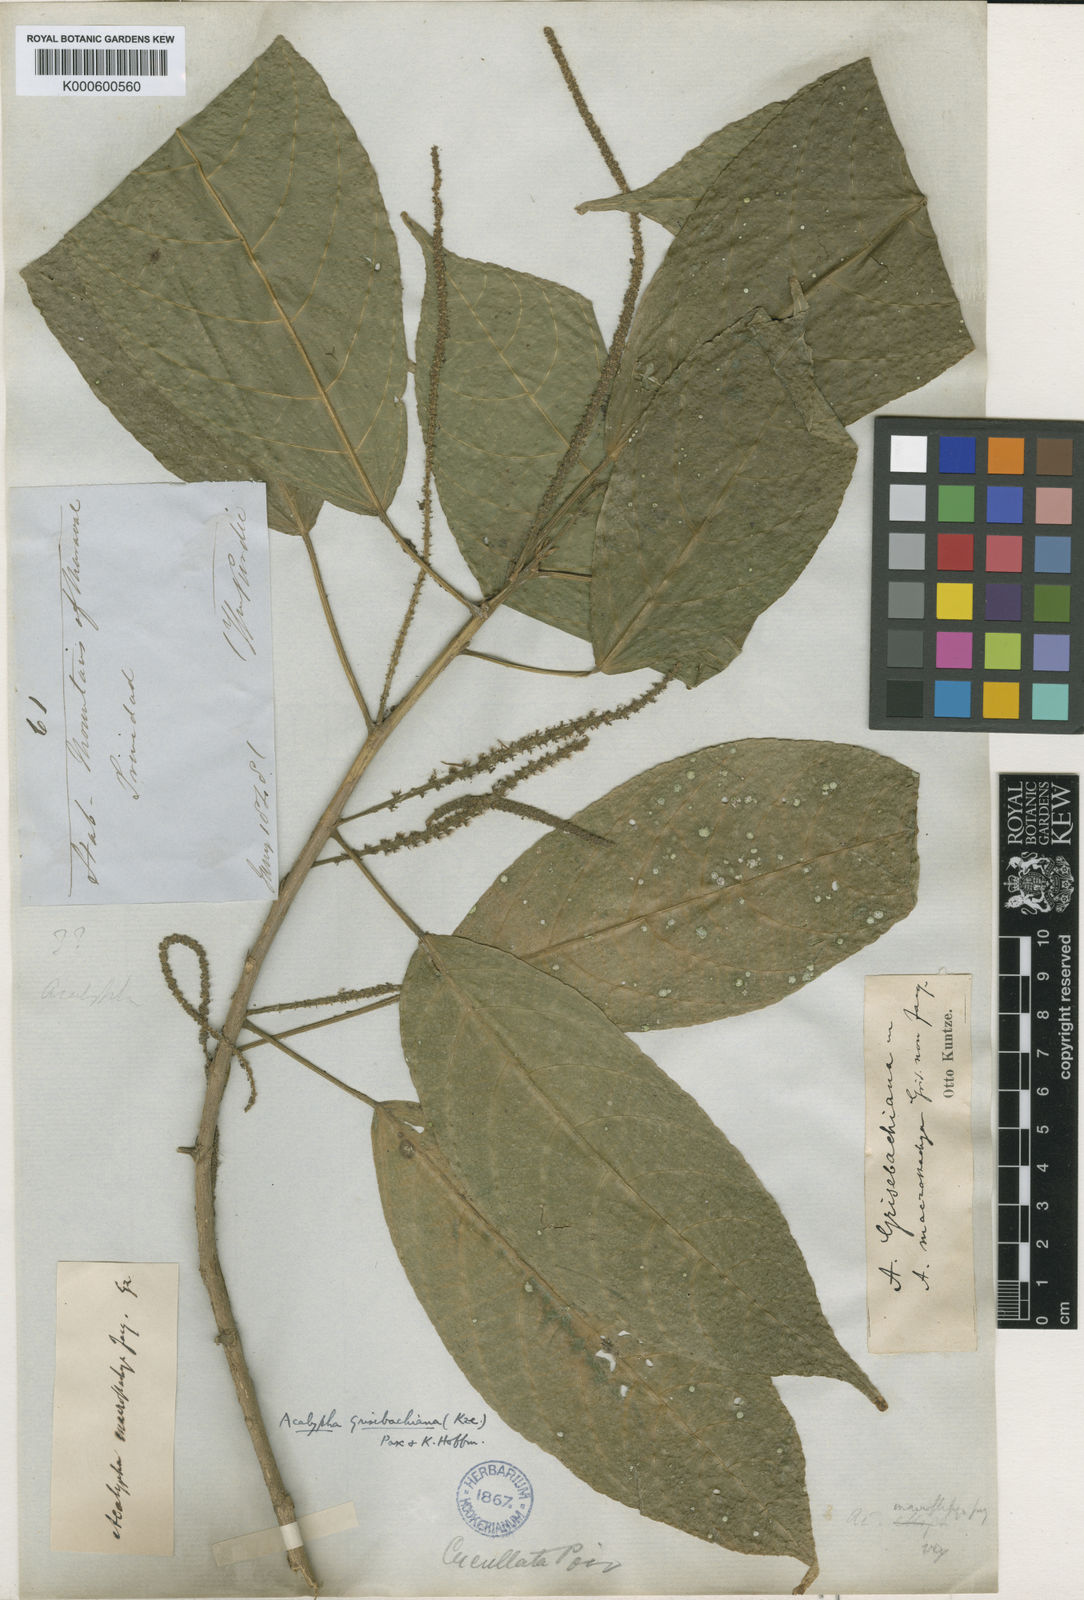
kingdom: Plantae
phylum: Tracheophyta
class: Magnoliopsida
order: Malpighiales
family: Euphorbiaceae
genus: Acalypha
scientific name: Acalypha grisebachiana
